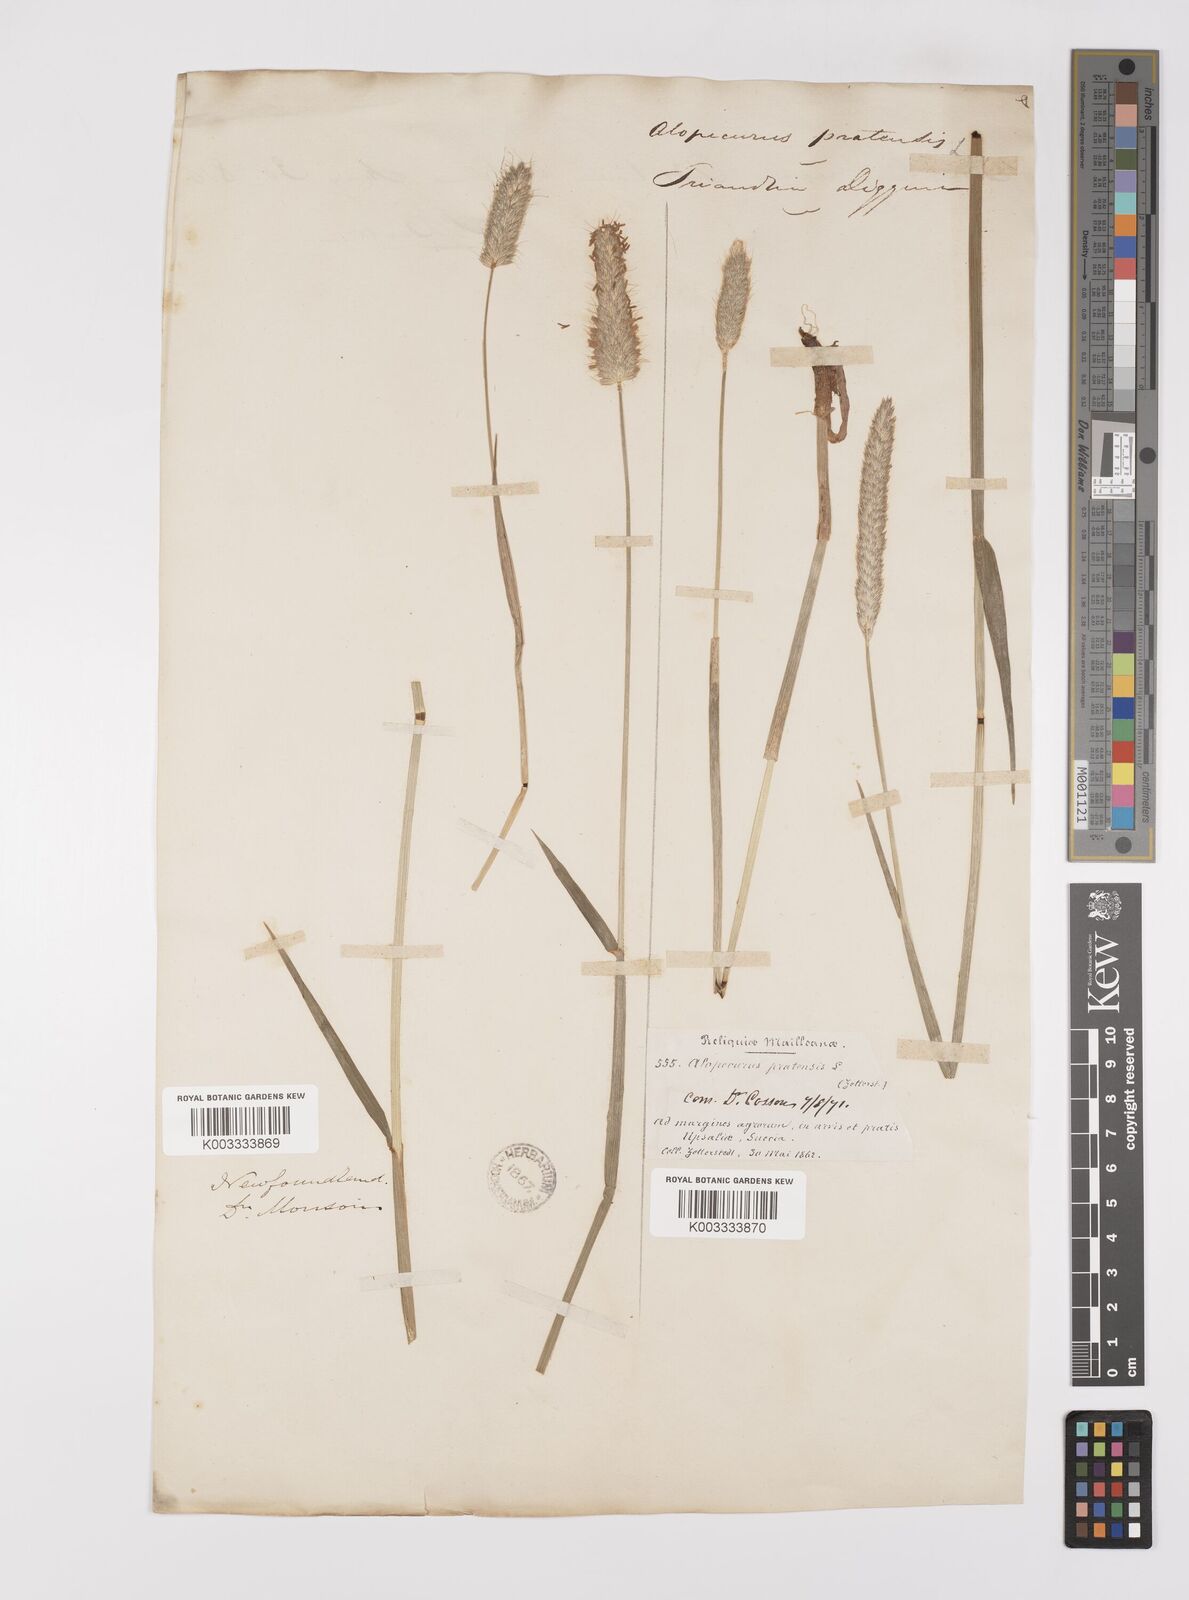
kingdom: Plantae
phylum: Tracheophyta
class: Liliopsida
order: Poales
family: Poaceae
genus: Alopecurus
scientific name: Alopecurus pratensis
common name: Meadow foxtail
